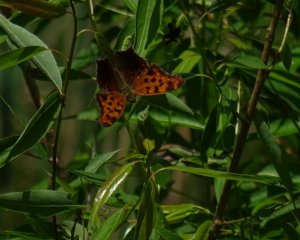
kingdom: Animalia
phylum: Arthropoda
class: Insecta
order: Lepidoptera
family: Nymphalidae
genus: Polygonia
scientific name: Polygonia interrogationis
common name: Question Mark
